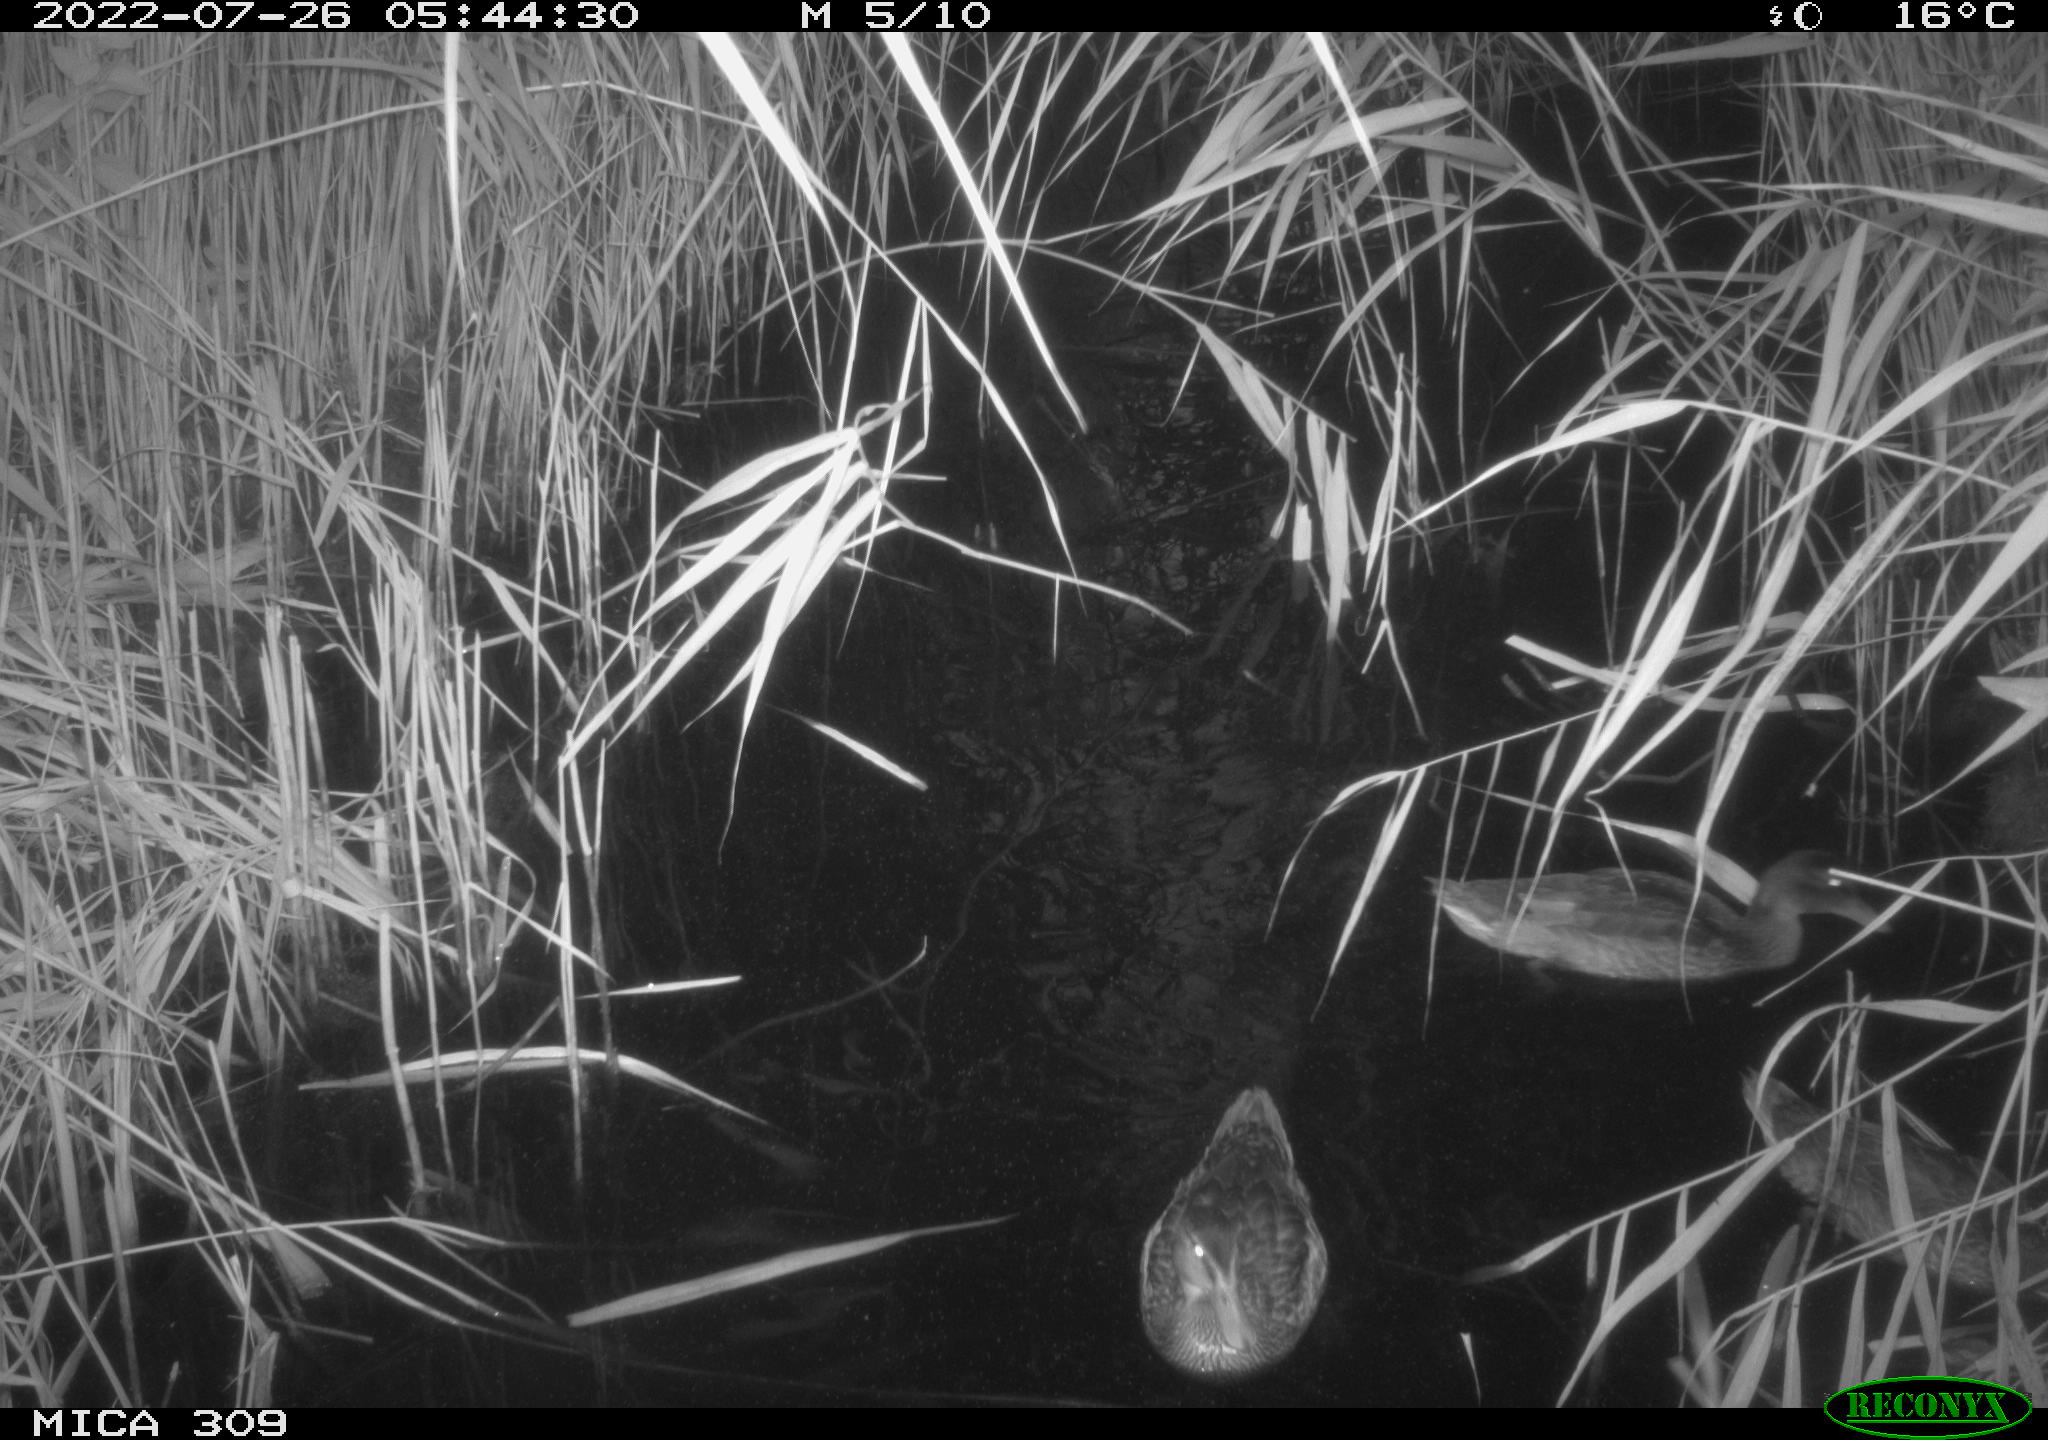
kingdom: Animalia
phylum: Chordata
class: Aves
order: Anseriformes
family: Anatidae
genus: Anas
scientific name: Anas platyrhynchos
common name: Mallard
